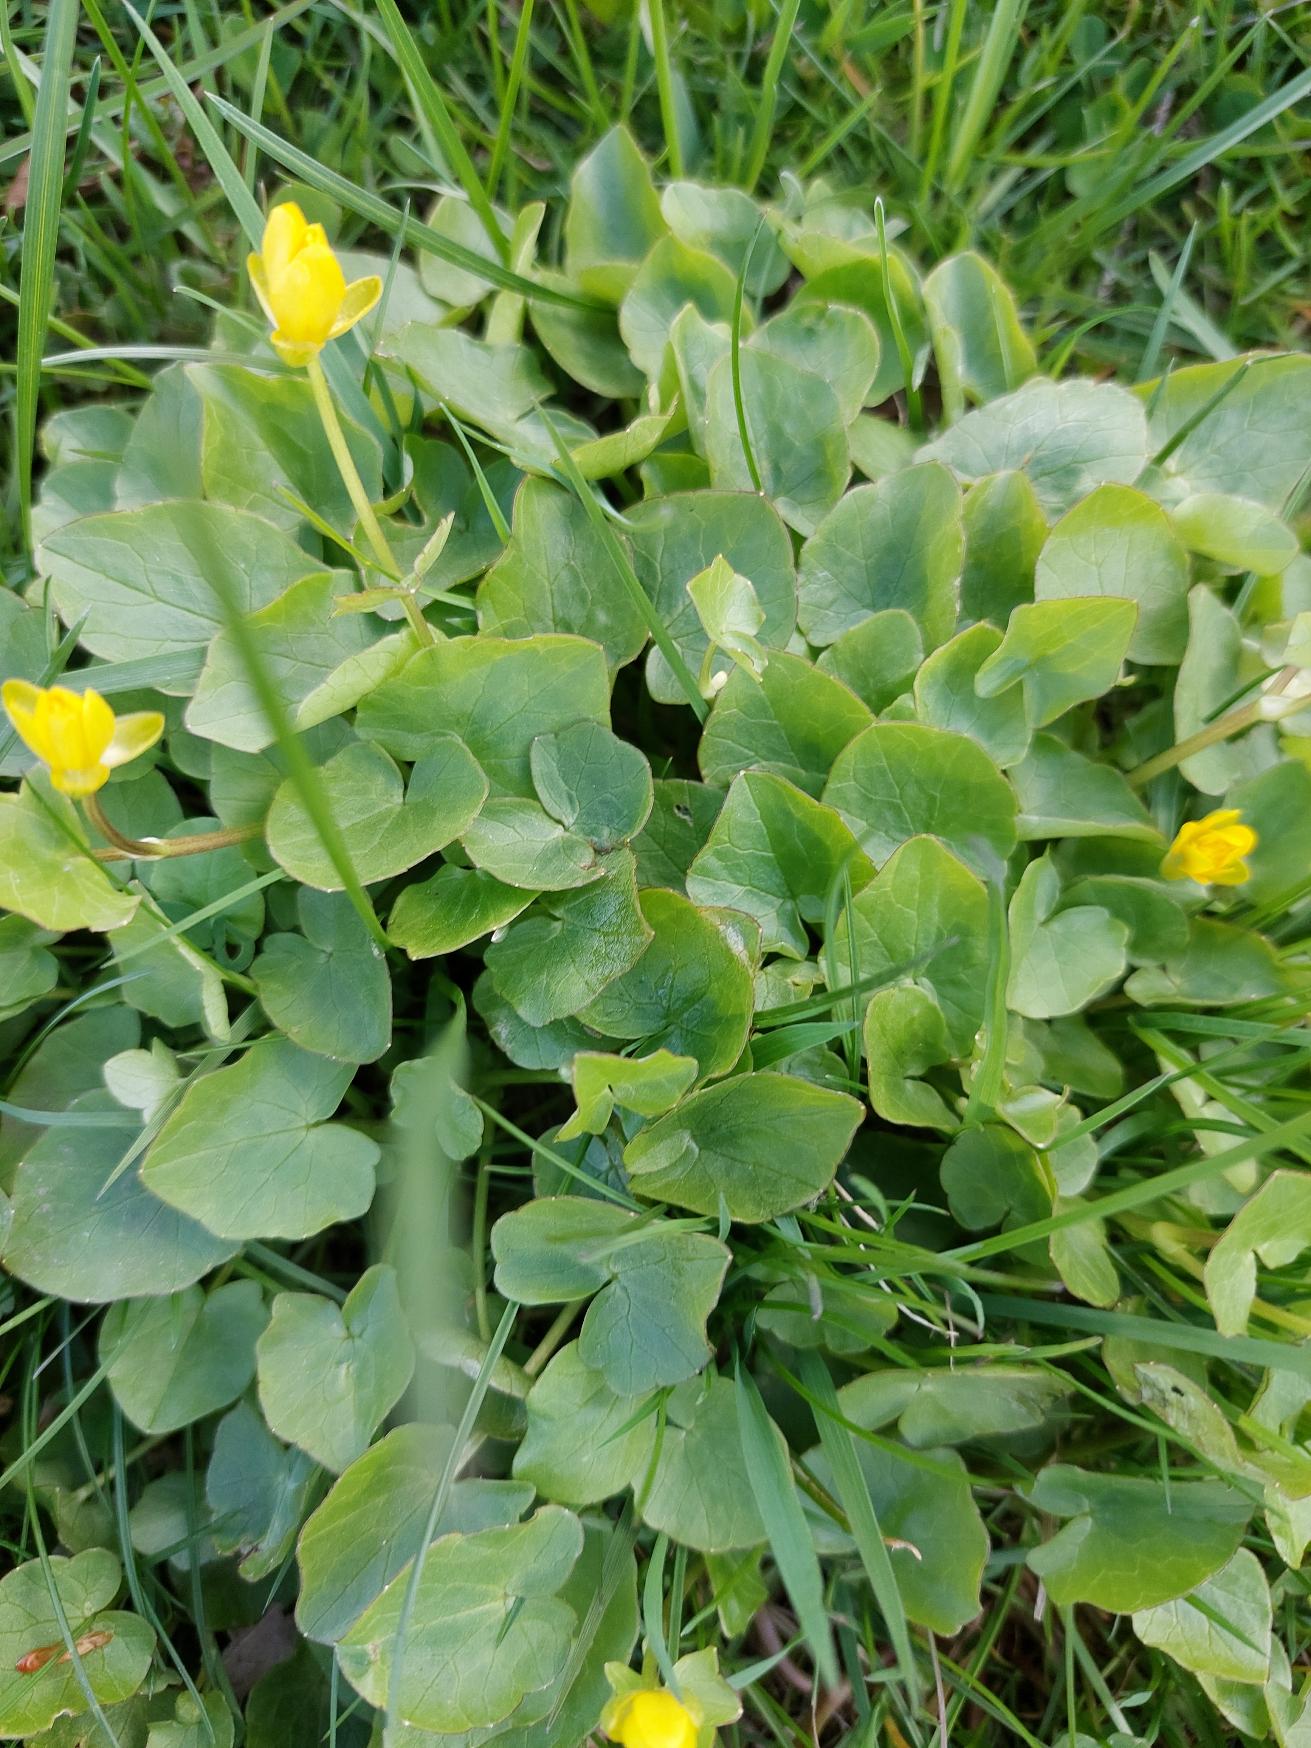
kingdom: Plantae
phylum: Tracheophyta
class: Magnoliopsida
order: Ranunculales
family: Ranunculaceae
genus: Ficaria
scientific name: Ficaria verna
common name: Vorterod
